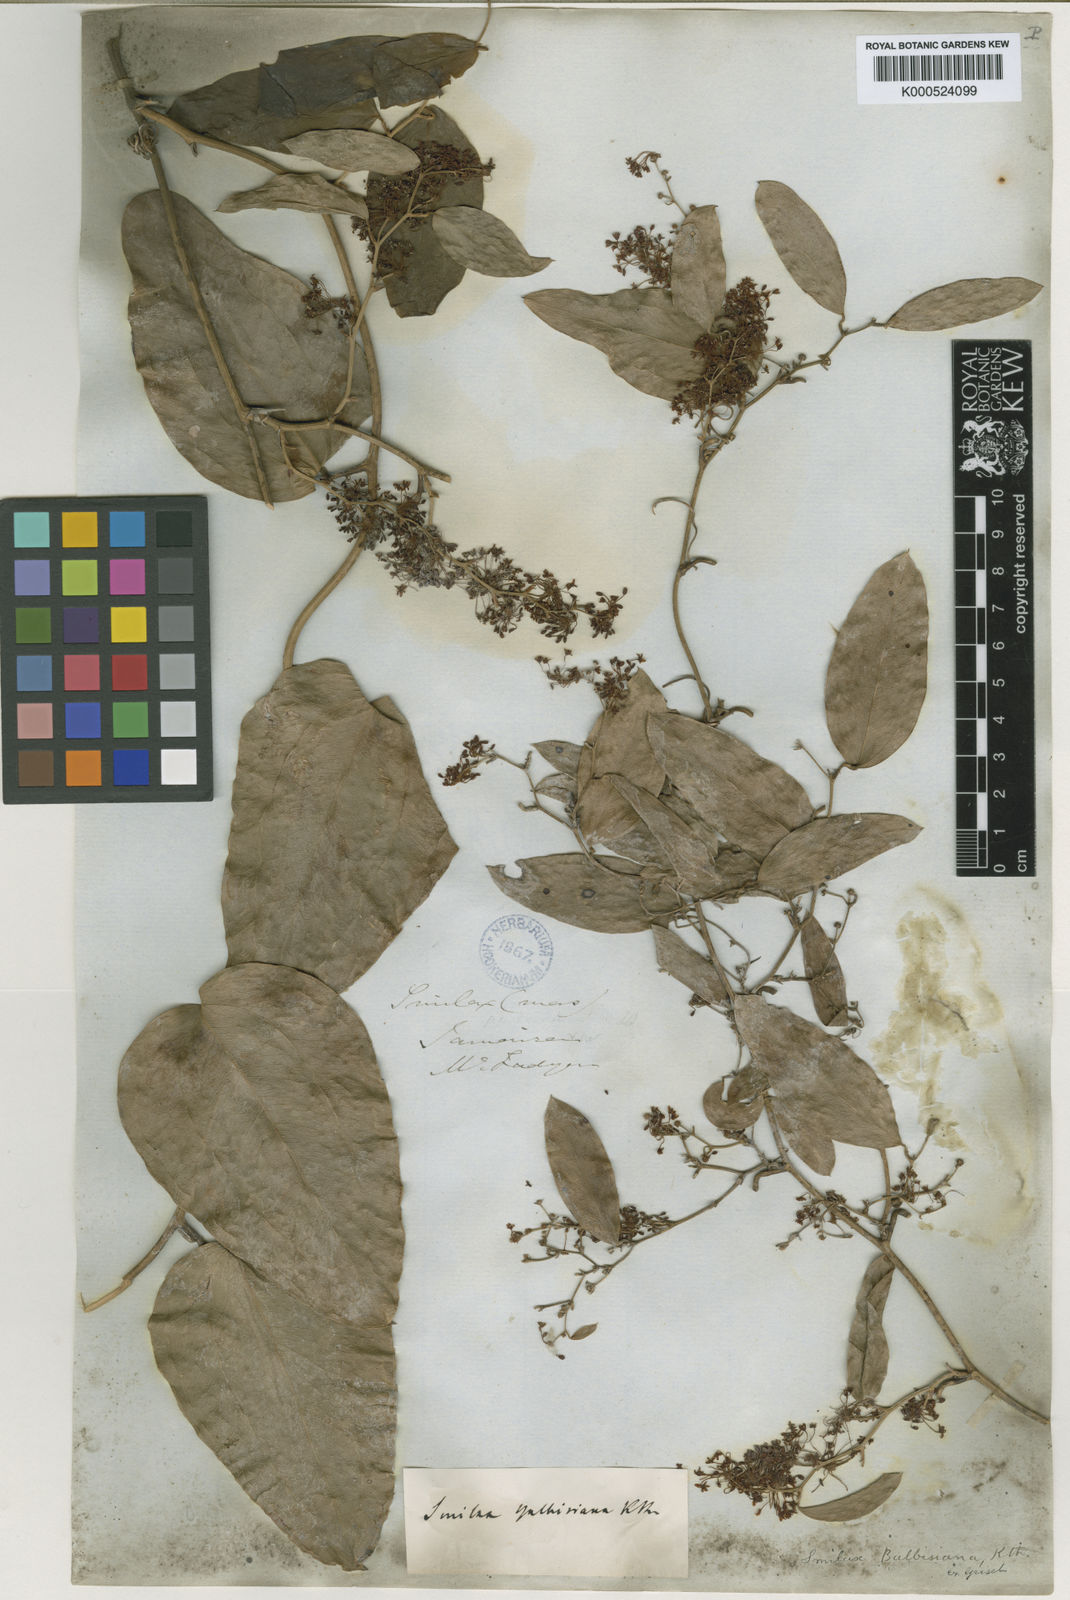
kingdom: Plantae
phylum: Tracheophyta
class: Liliopsida
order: Liliales
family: Smilacaceae
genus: Smilax
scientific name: Smilax domingensis
